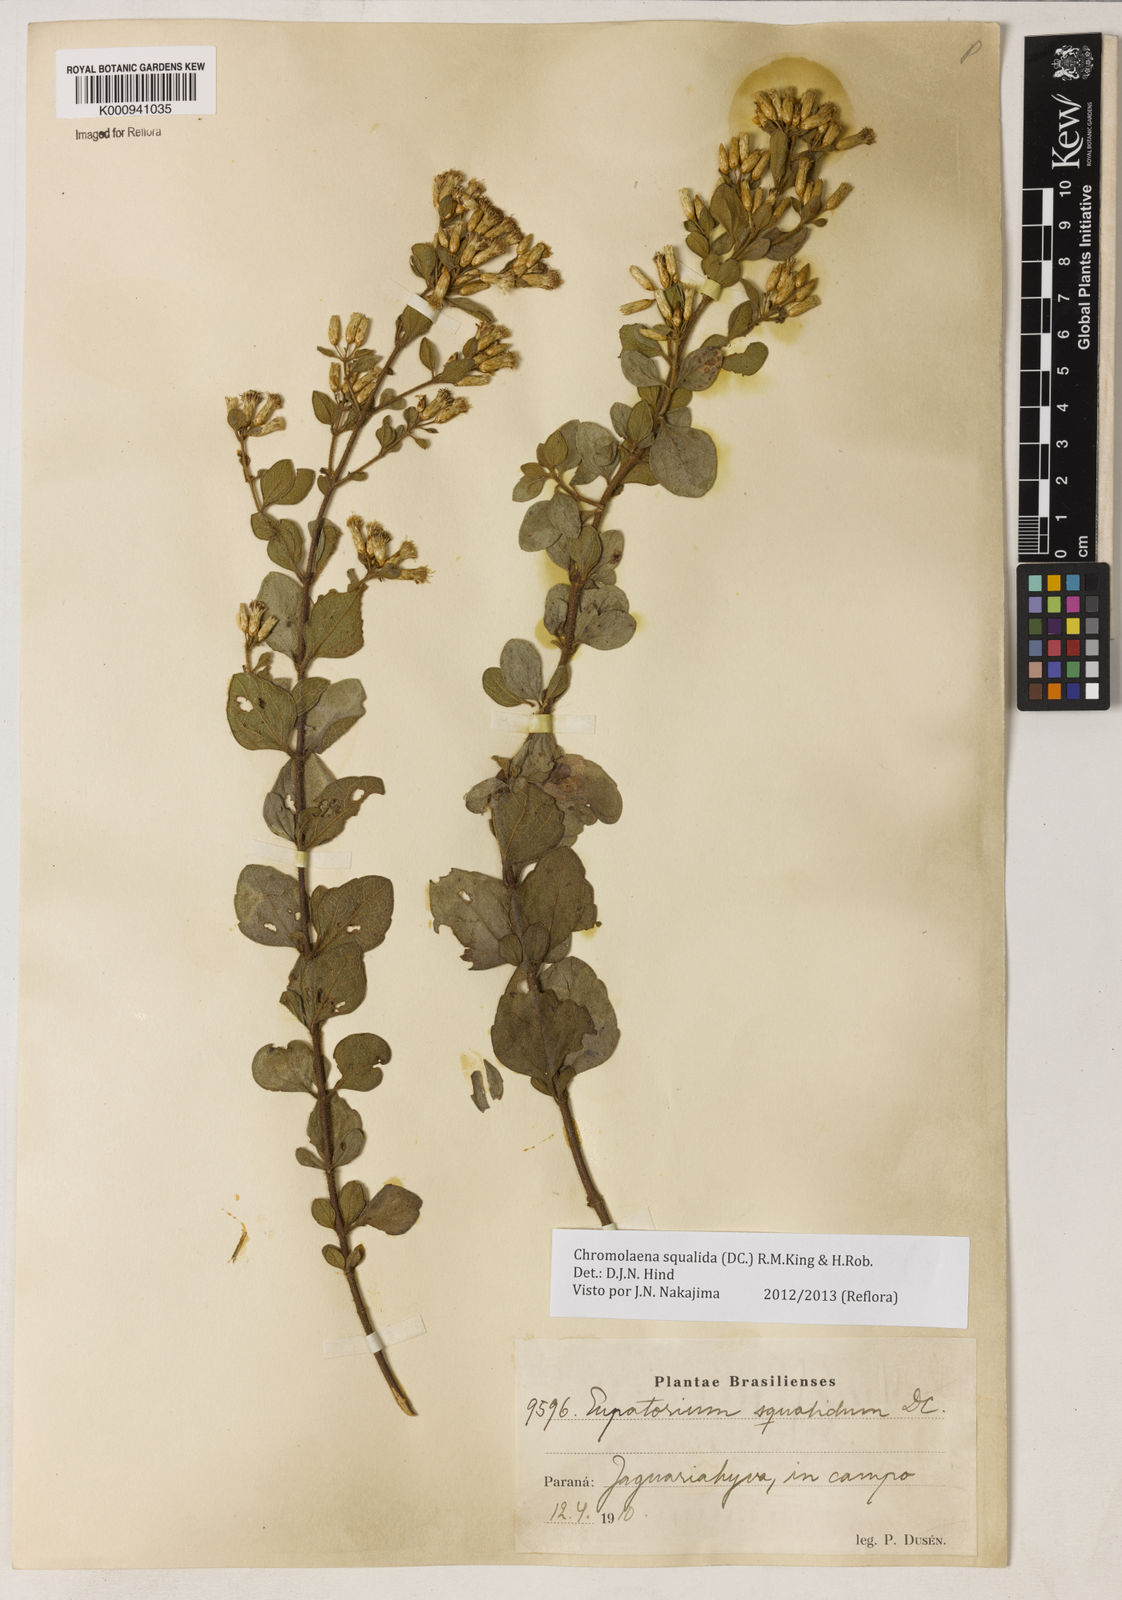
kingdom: Plantae
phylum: Tracheophyta
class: Magnoliopsida
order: Asterales
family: Asteraceae
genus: Chromolaena
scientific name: Chromolaena squalida
